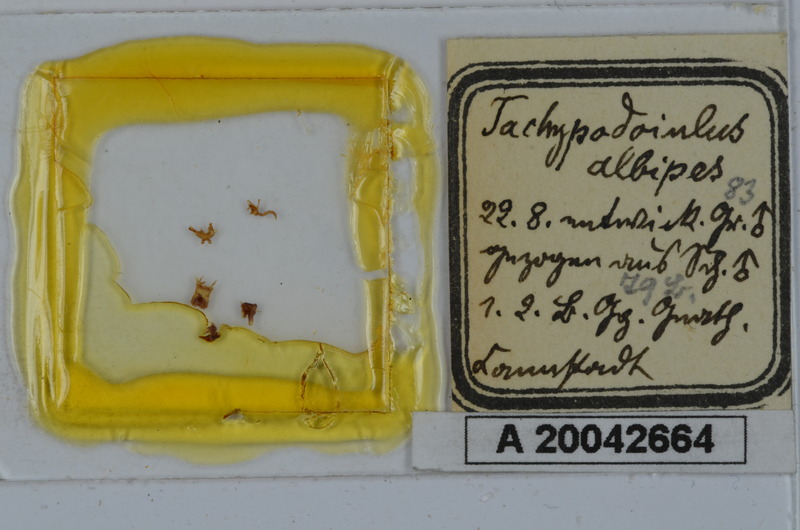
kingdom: Animalia
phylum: Arthropoda
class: Diplopoda
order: Julida
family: Julidae
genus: Tachypodoiulus
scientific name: Tachypodoiulus niger
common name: White-legged snake millipede
